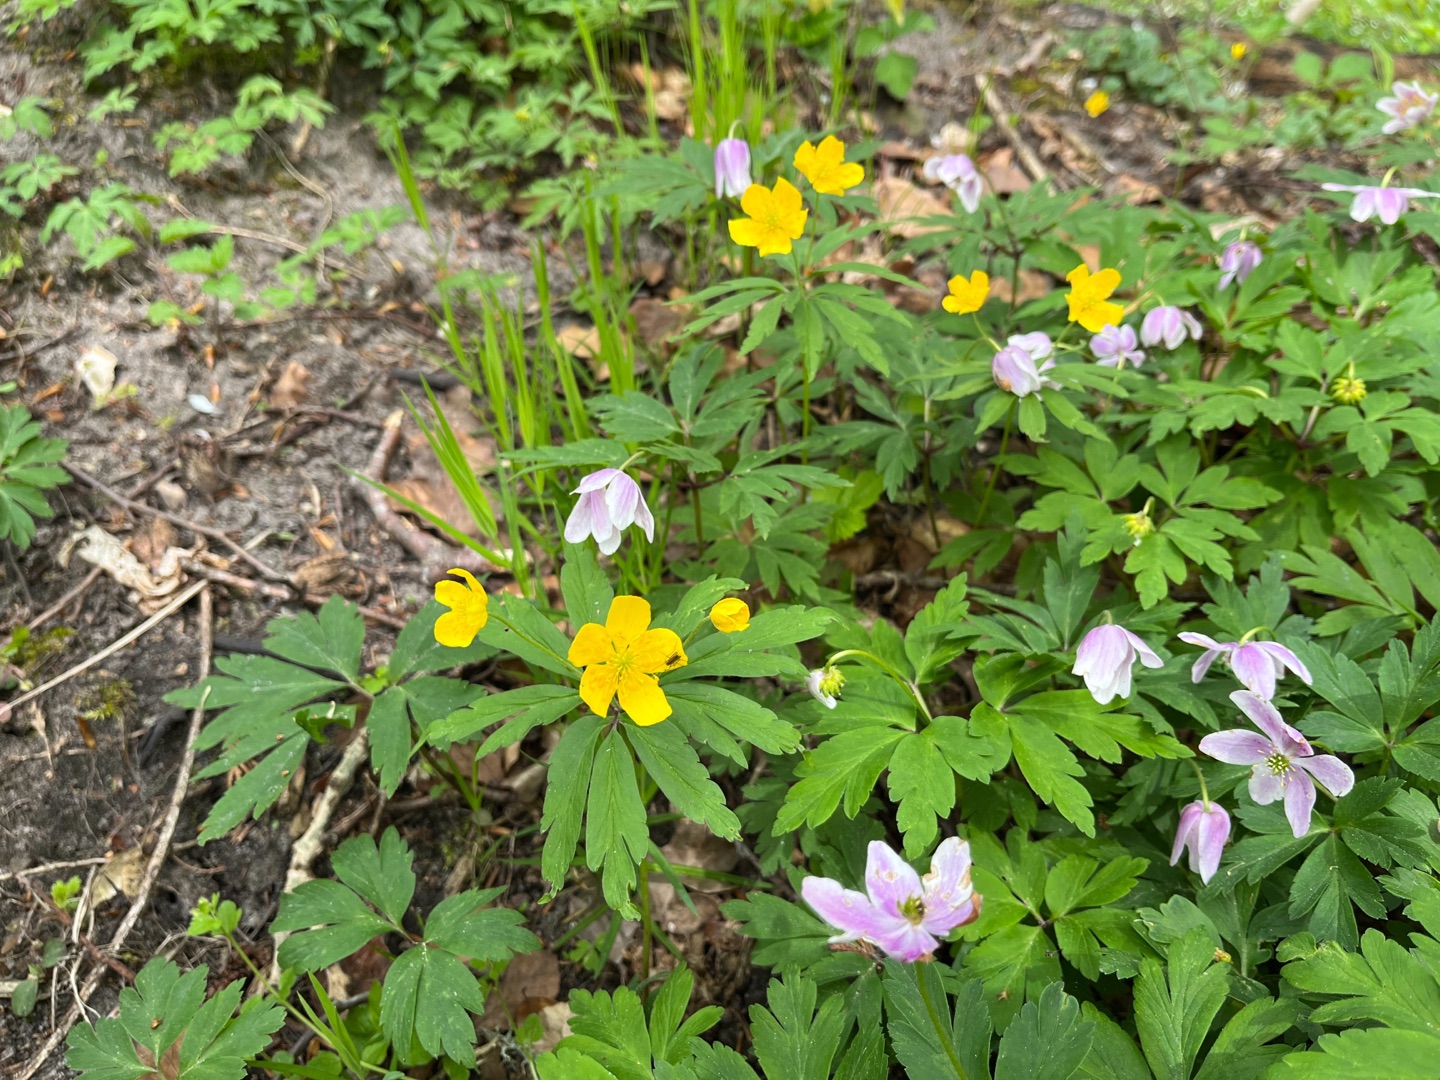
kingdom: Plantae
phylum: Tracheophyta
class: Magnoliopsida
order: Ranunculales
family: Ranunculaceae
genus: Anemone
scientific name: Anemone ranunculoides
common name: Gul anemone
